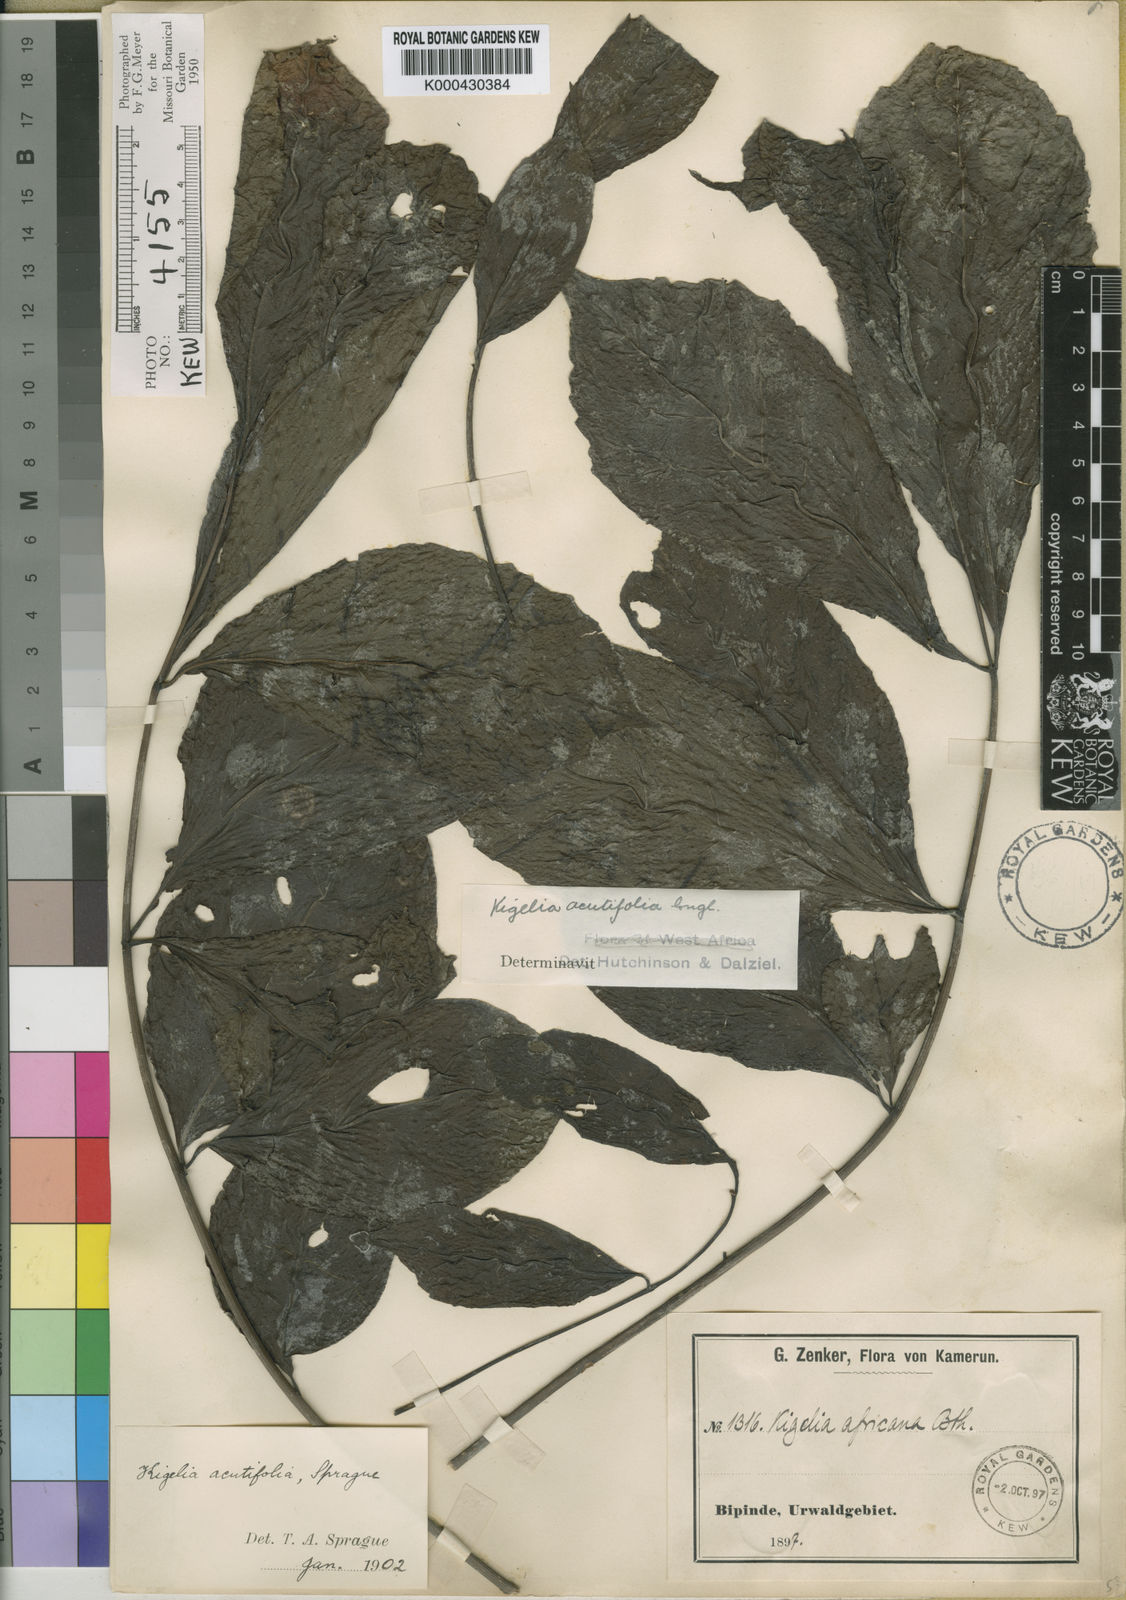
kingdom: Plantae
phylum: Tracheophyta
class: Magnoliopsida
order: Lamiales
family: Bignoniaceae
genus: Kigelia
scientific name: Kigelia africana
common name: Sausage tree
